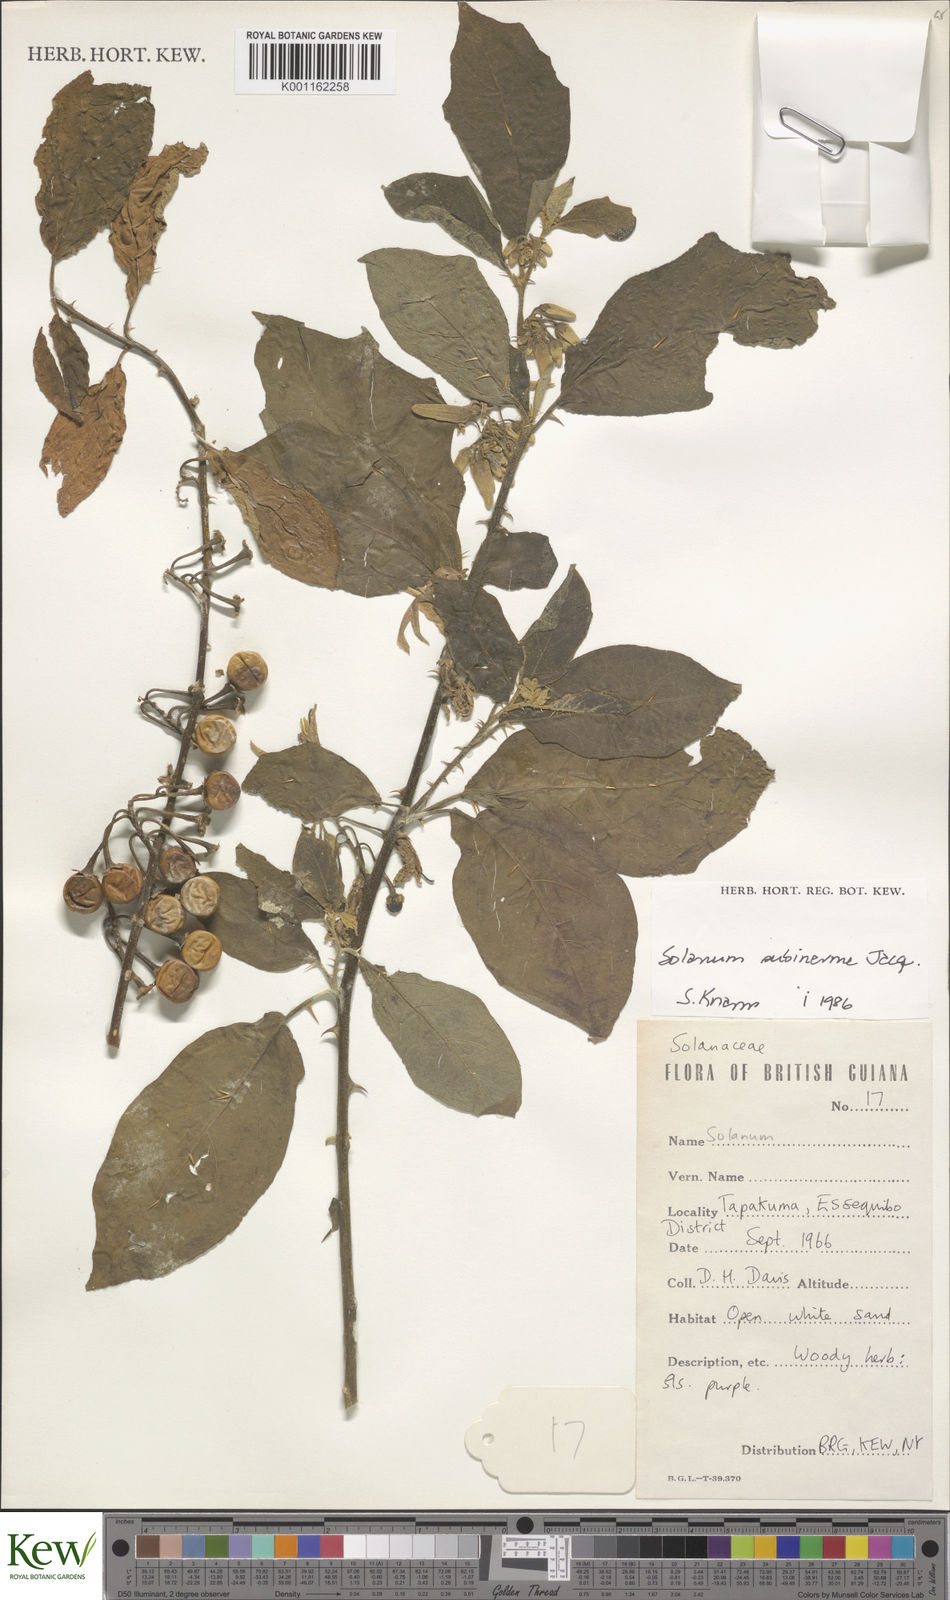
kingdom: Plantae
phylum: Tracheophyta
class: Magnoliopsida
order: Solanales
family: Solanaceae
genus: Solanum
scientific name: Solanum subinerme
